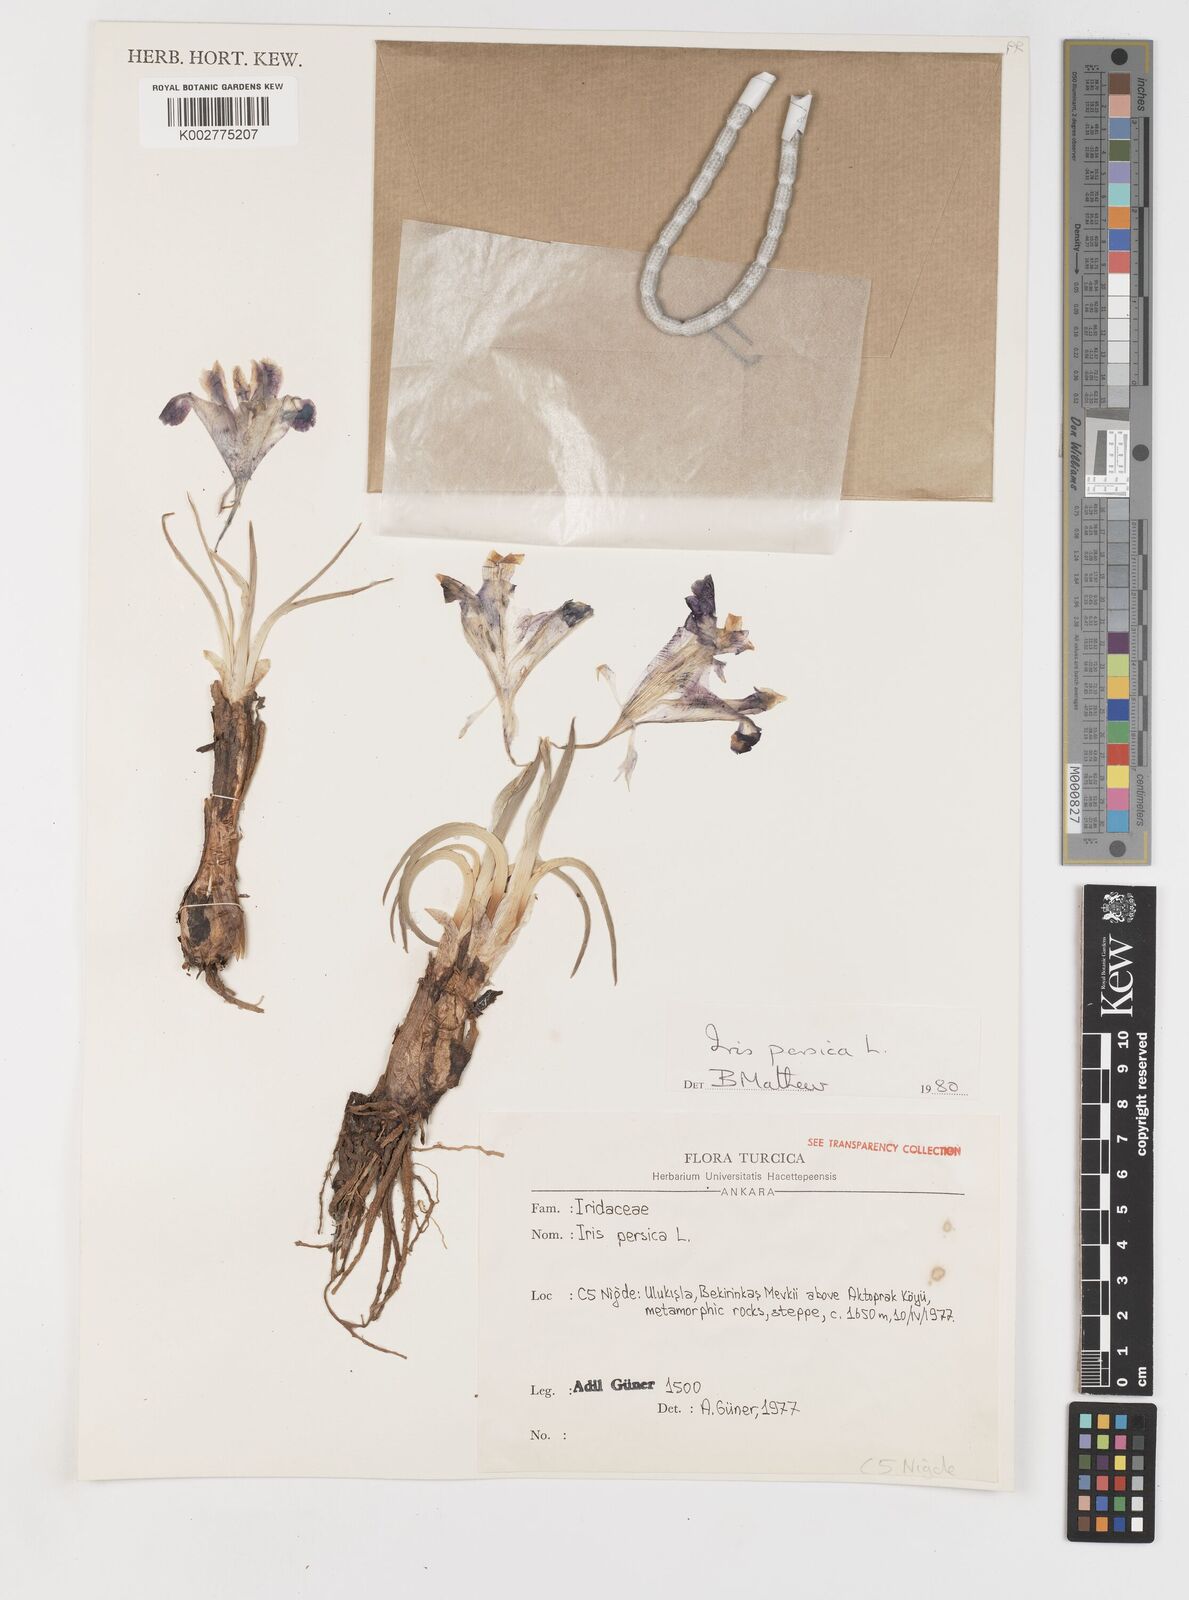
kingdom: Plantae
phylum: Tracheophyta
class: Liliopsida
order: Asparagales
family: Iridaceae
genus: Iris
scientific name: Iris persica
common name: Persian iris
